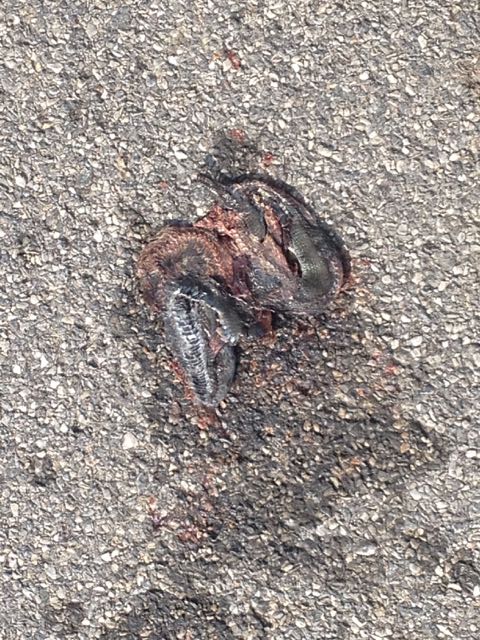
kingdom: Animalia
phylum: Chordata
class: Squamata
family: Colubridae
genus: Natrix
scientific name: Natrix natrix
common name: Grass snake
